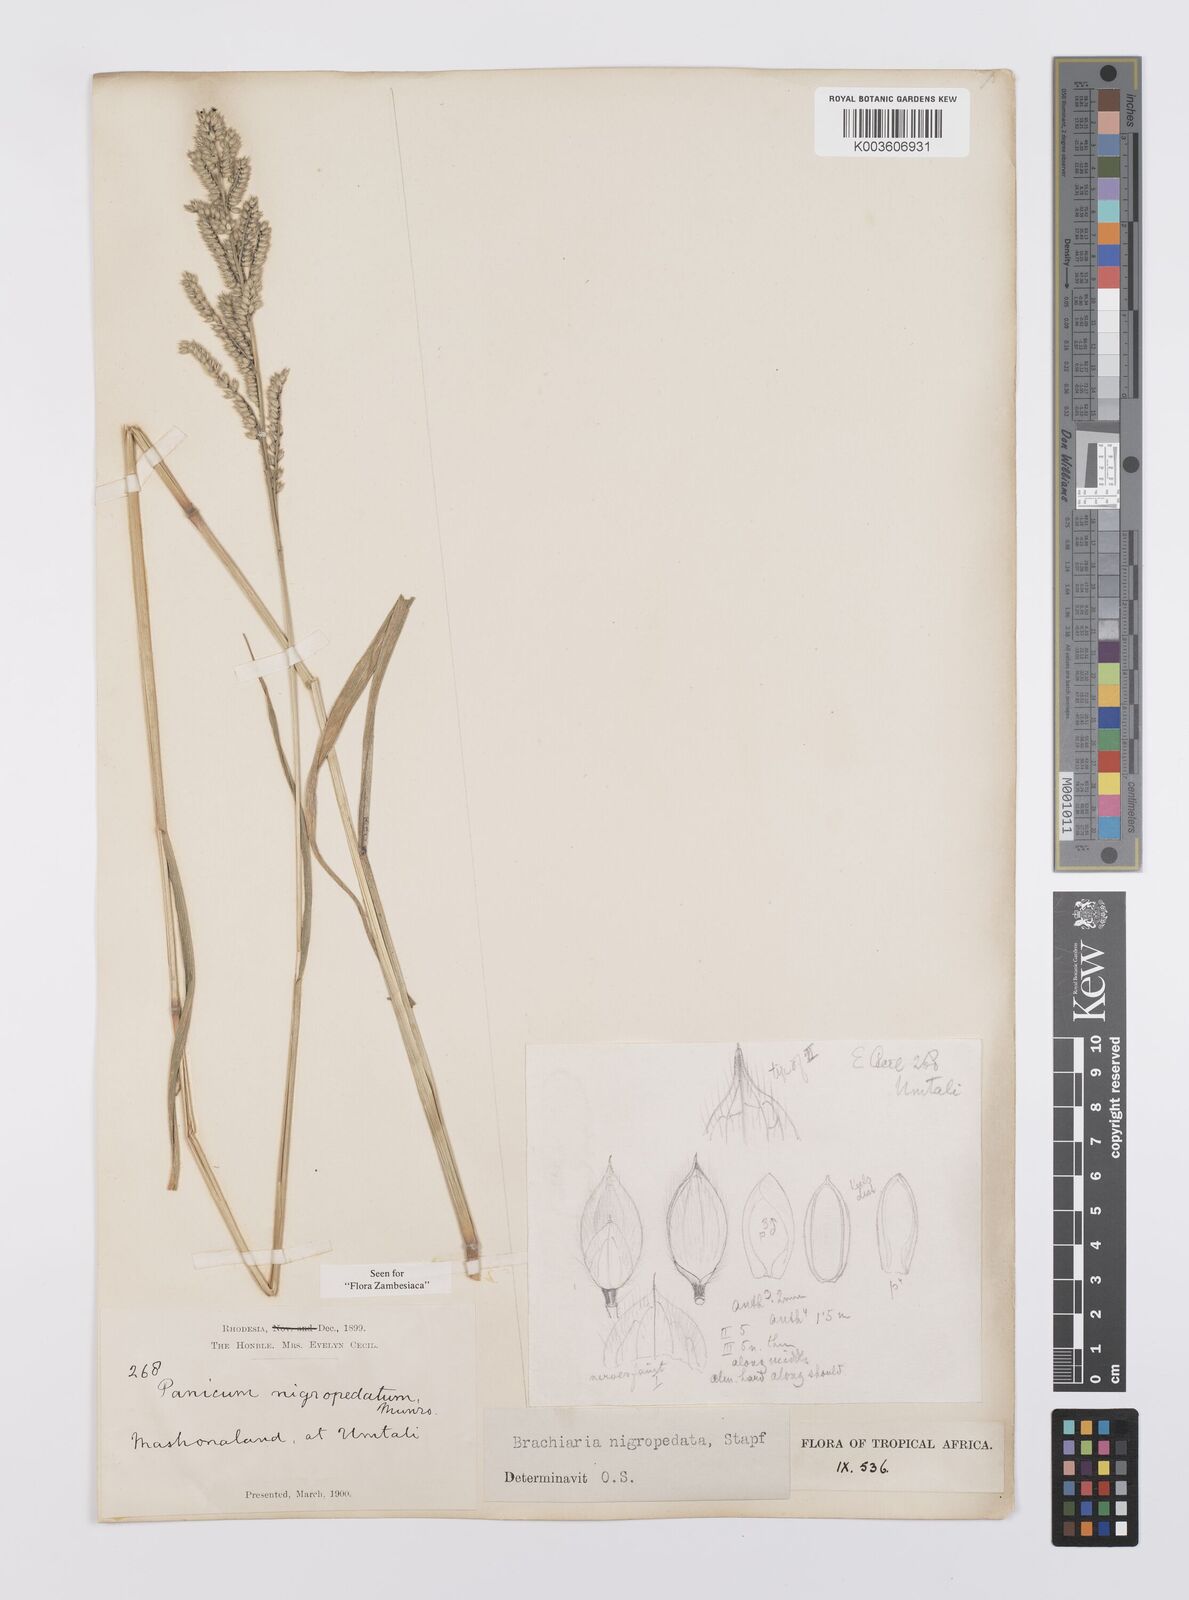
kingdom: Plantae
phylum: Tracheophyta
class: Liliopsida
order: Poales
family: Poaceae
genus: Urochloa
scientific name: Urochloa nigropedata
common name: Spotted signal grass
